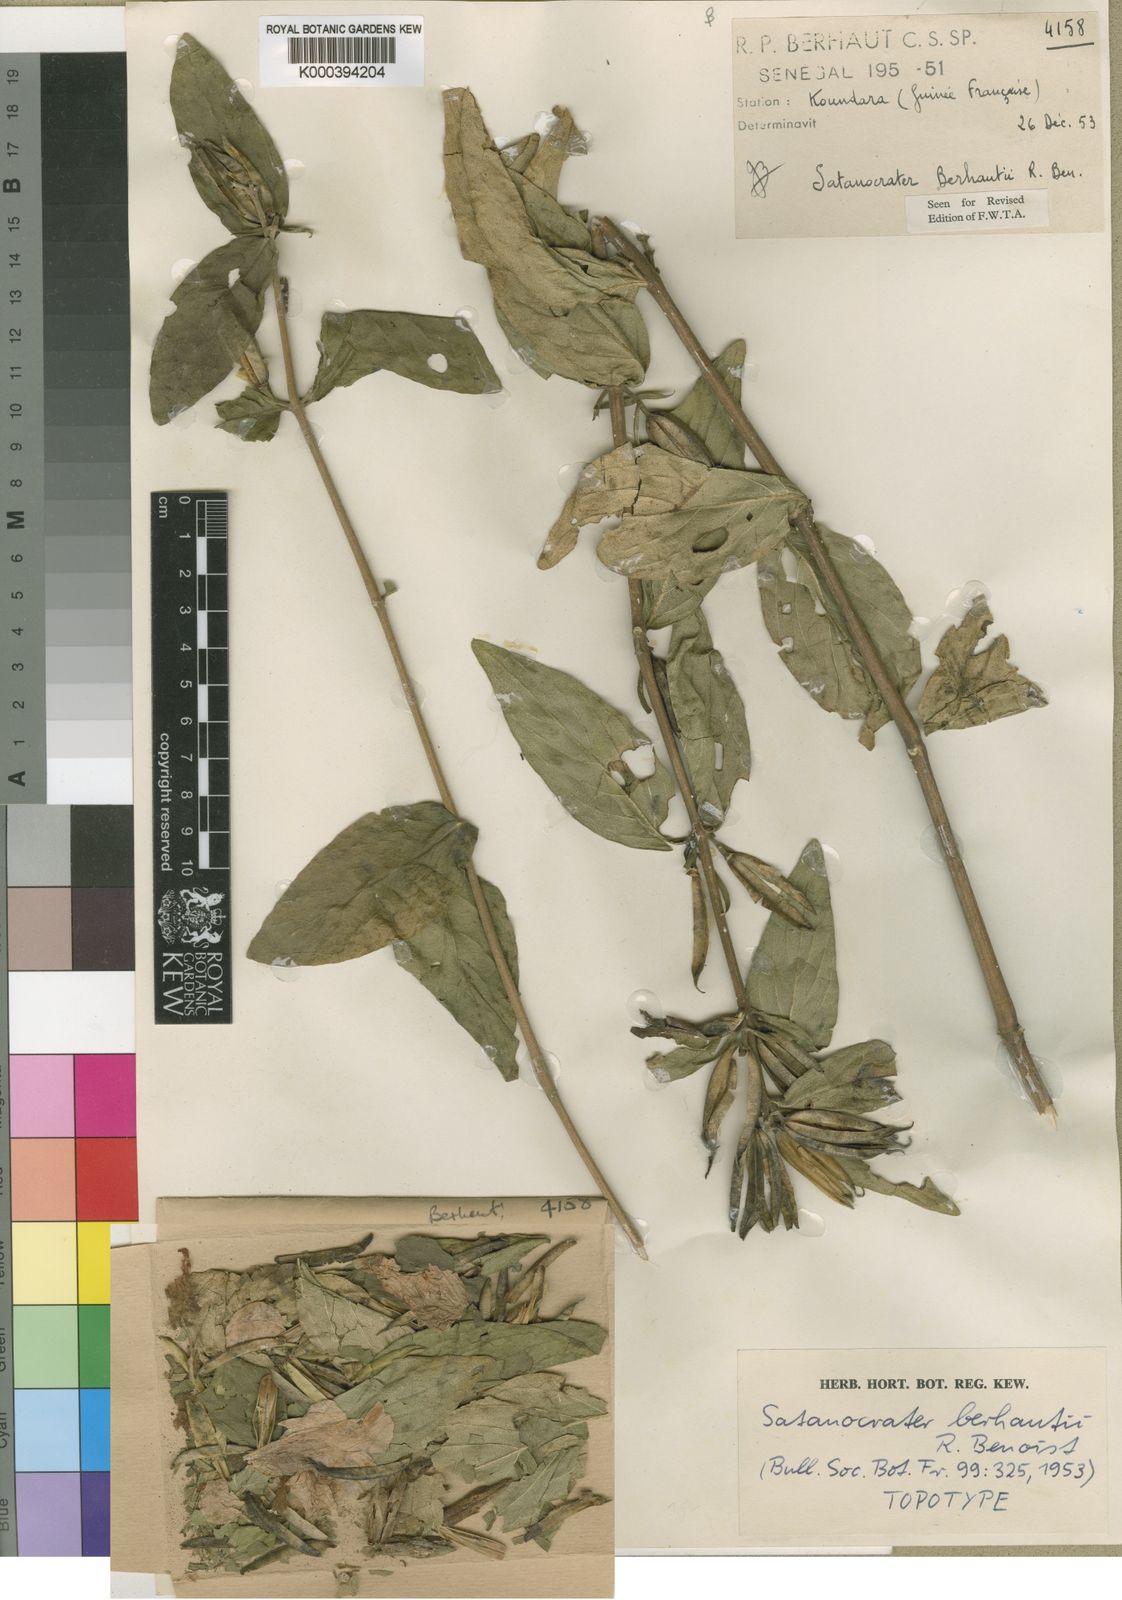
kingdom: Plantae
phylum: Tracheophyta
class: Magnoliopsida
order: Lamiales
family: Acanthaceae
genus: Satanocrater
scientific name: Satanocrater fellatensis
